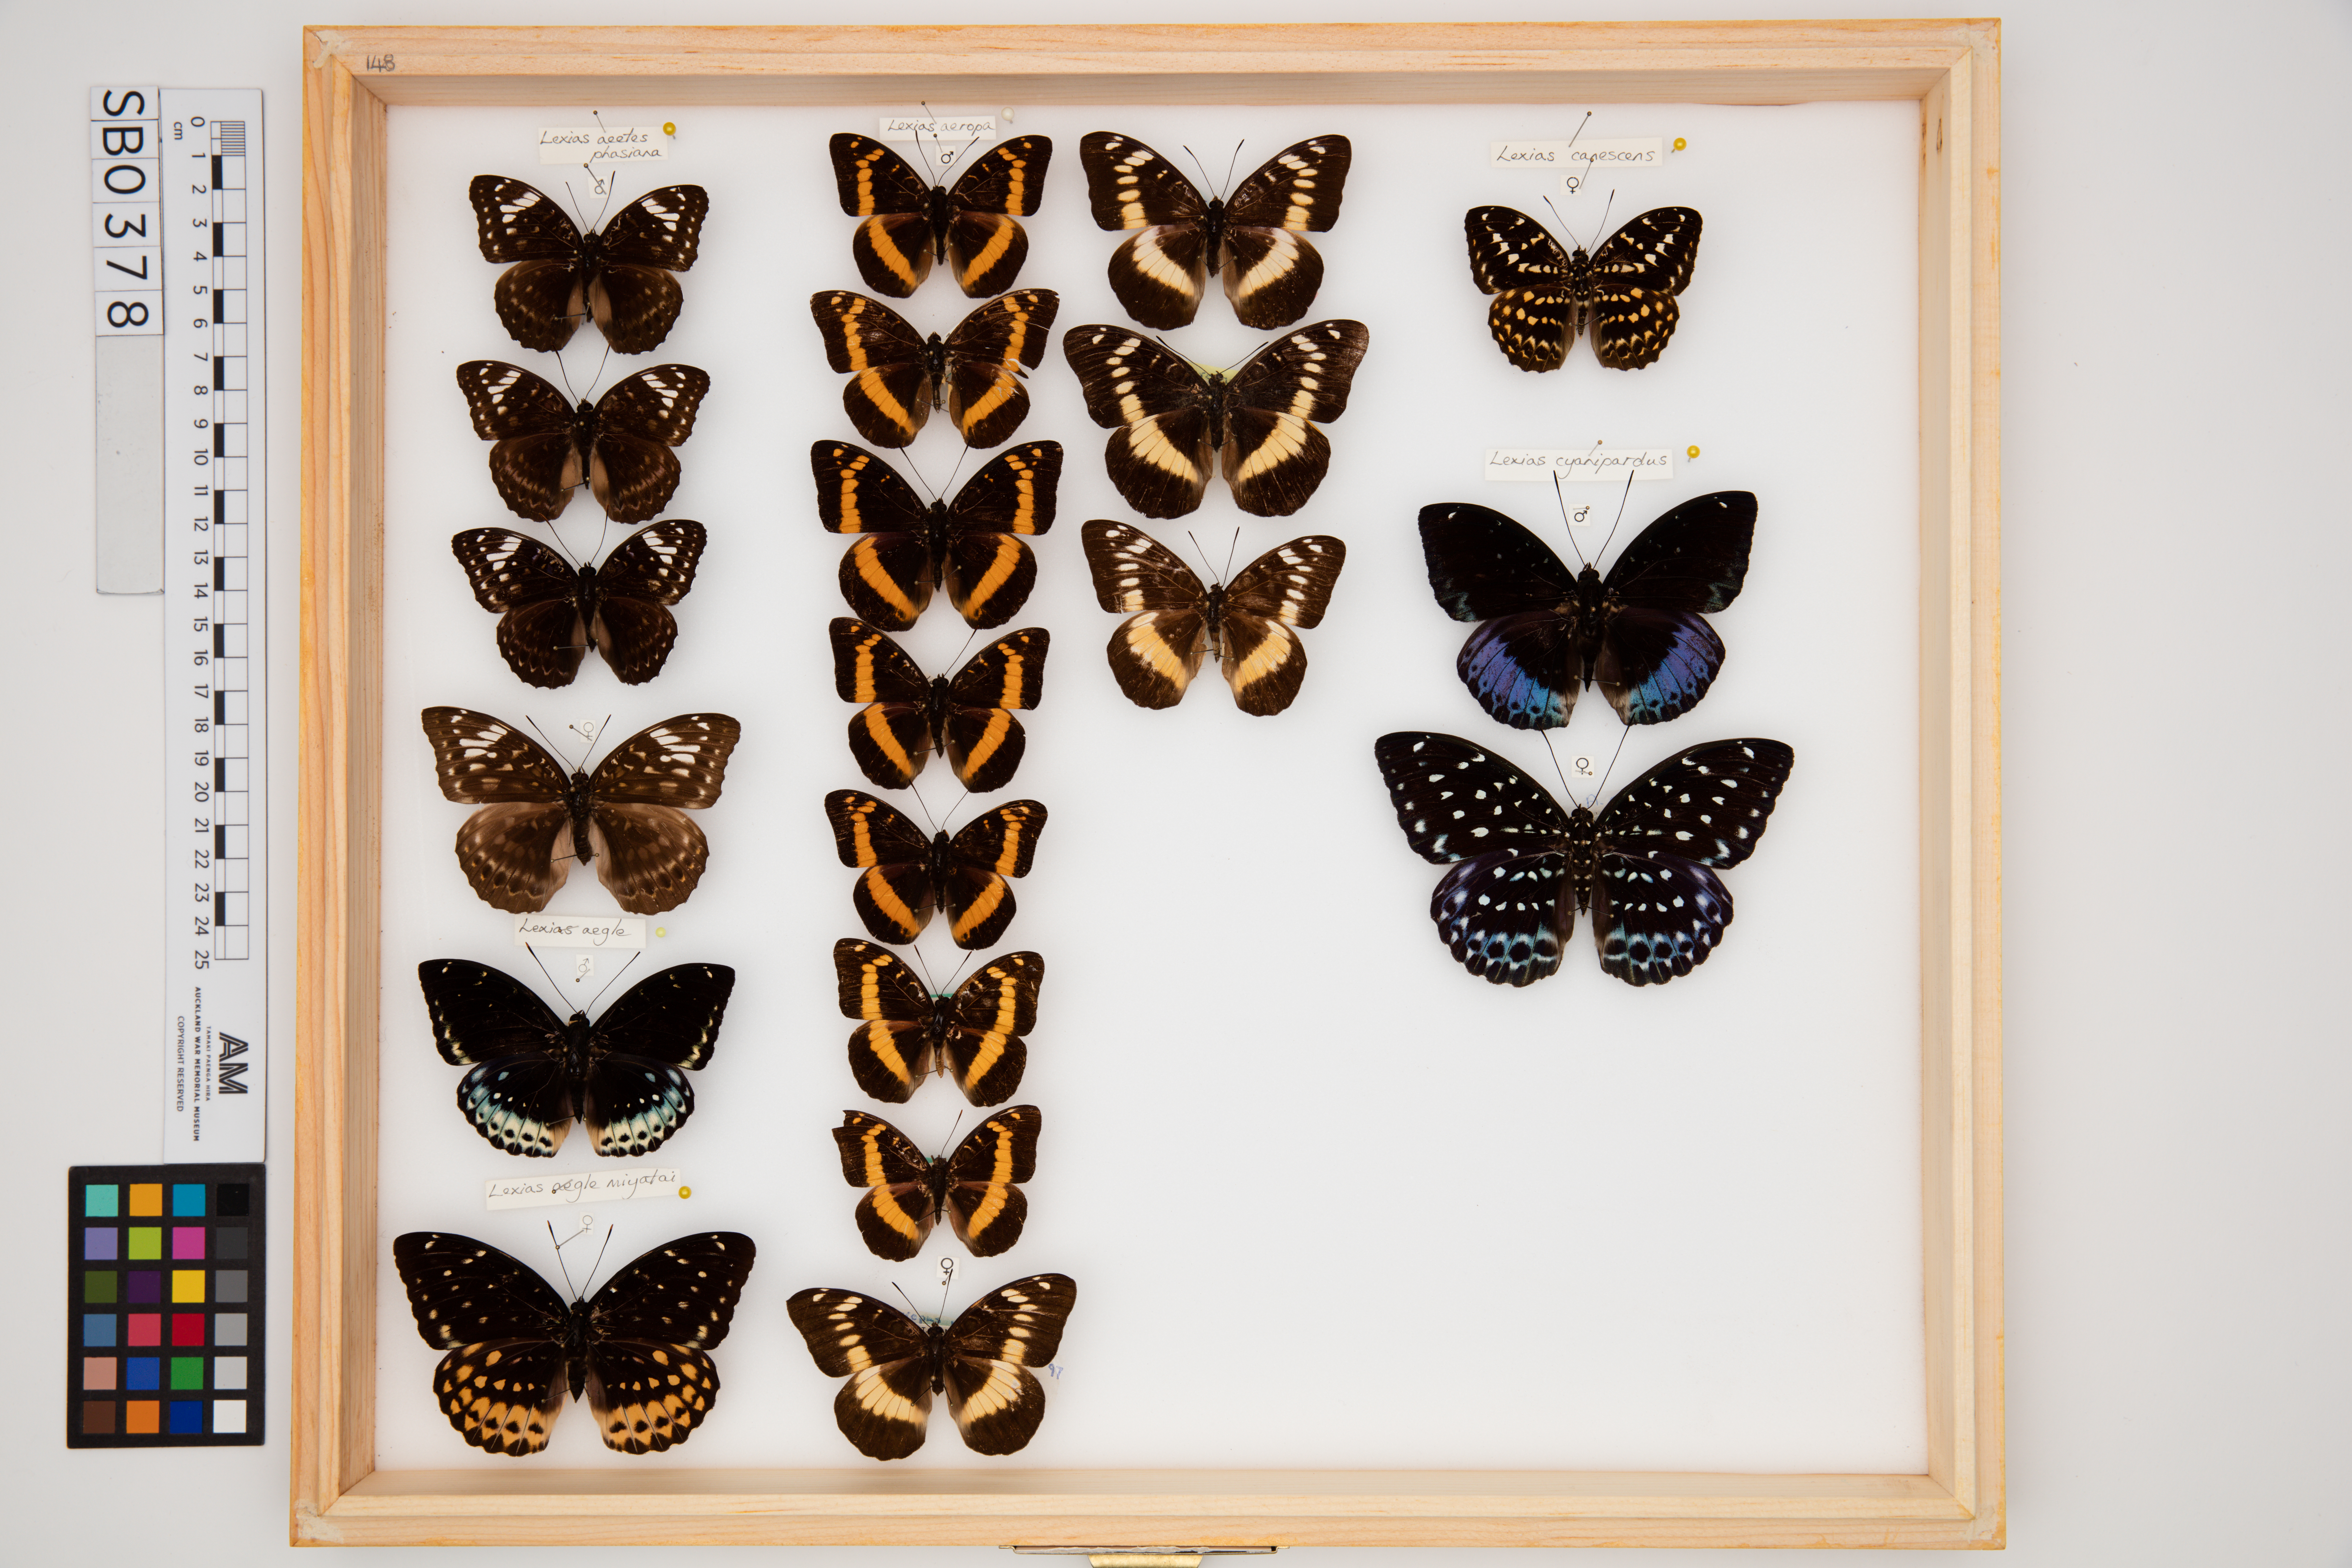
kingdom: Animalia
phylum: Arthropoda
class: Insecta
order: Lepidoptera
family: Nymphalidae
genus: Lexias
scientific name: Lexias aeropa
